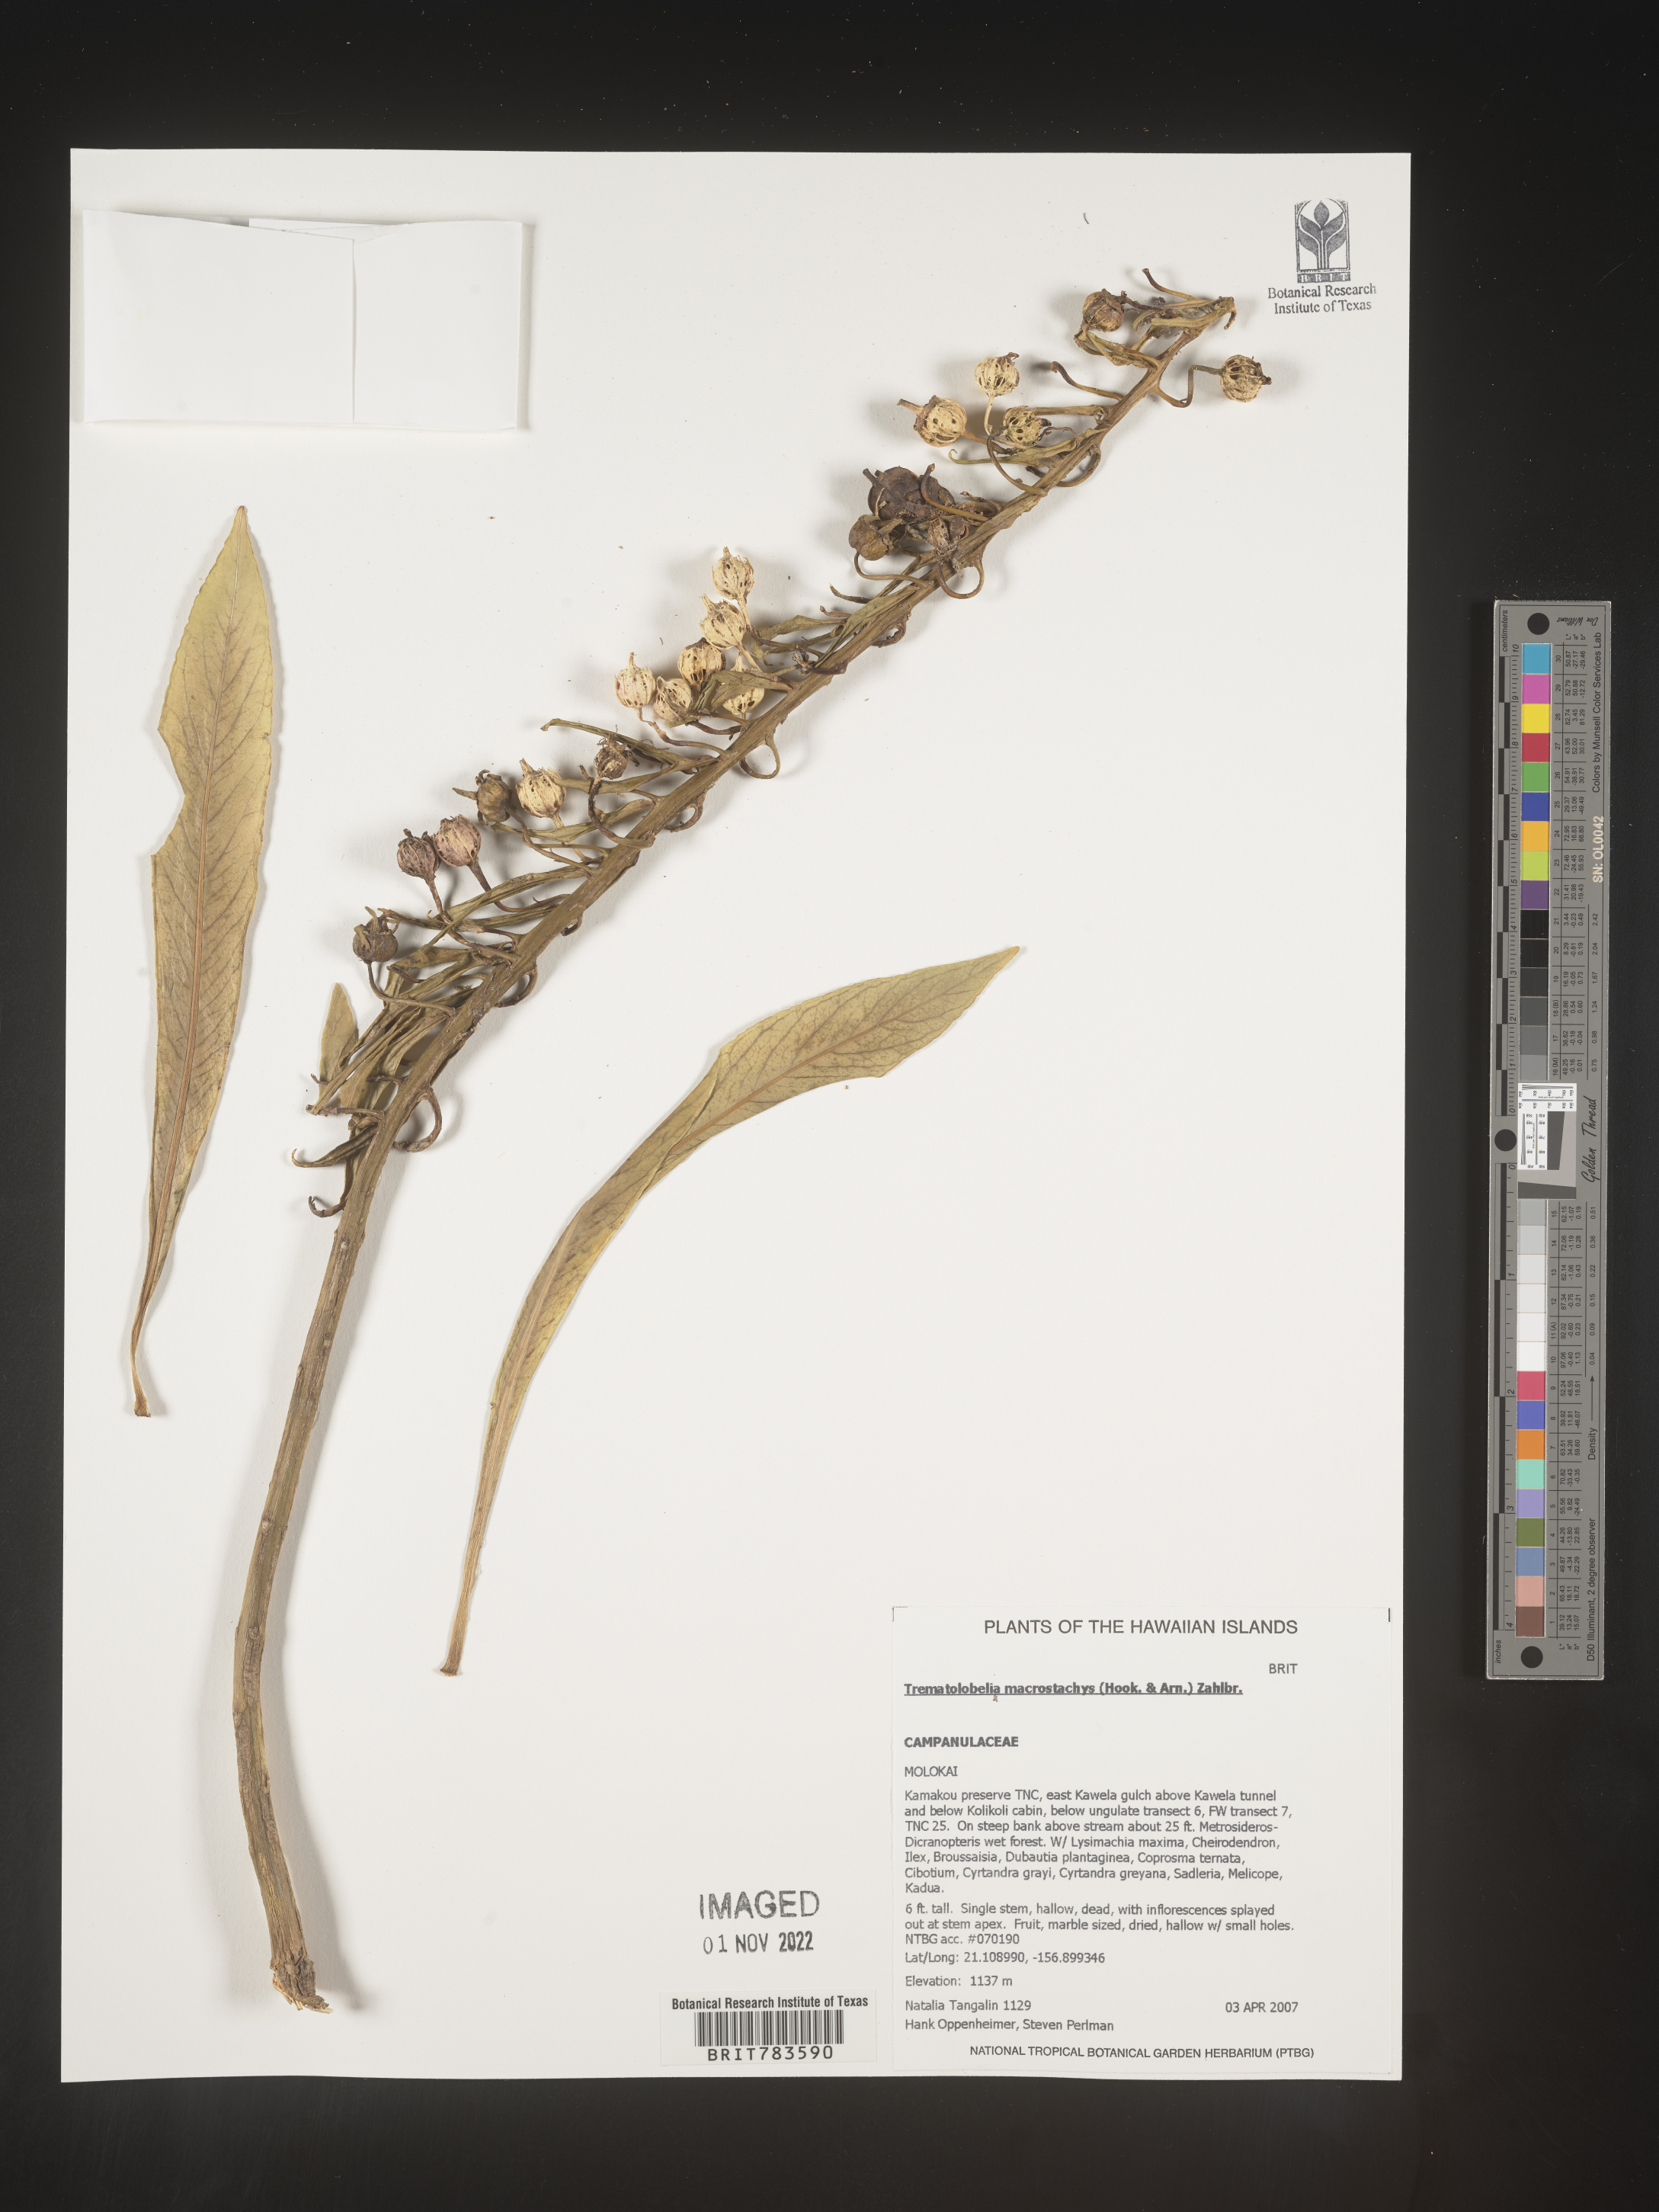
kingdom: Plantae
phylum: Tracheophyta
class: Magnoliopsida
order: Asterales
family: Campanulaceae
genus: Trematolobelia
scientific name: Trematolobelia
